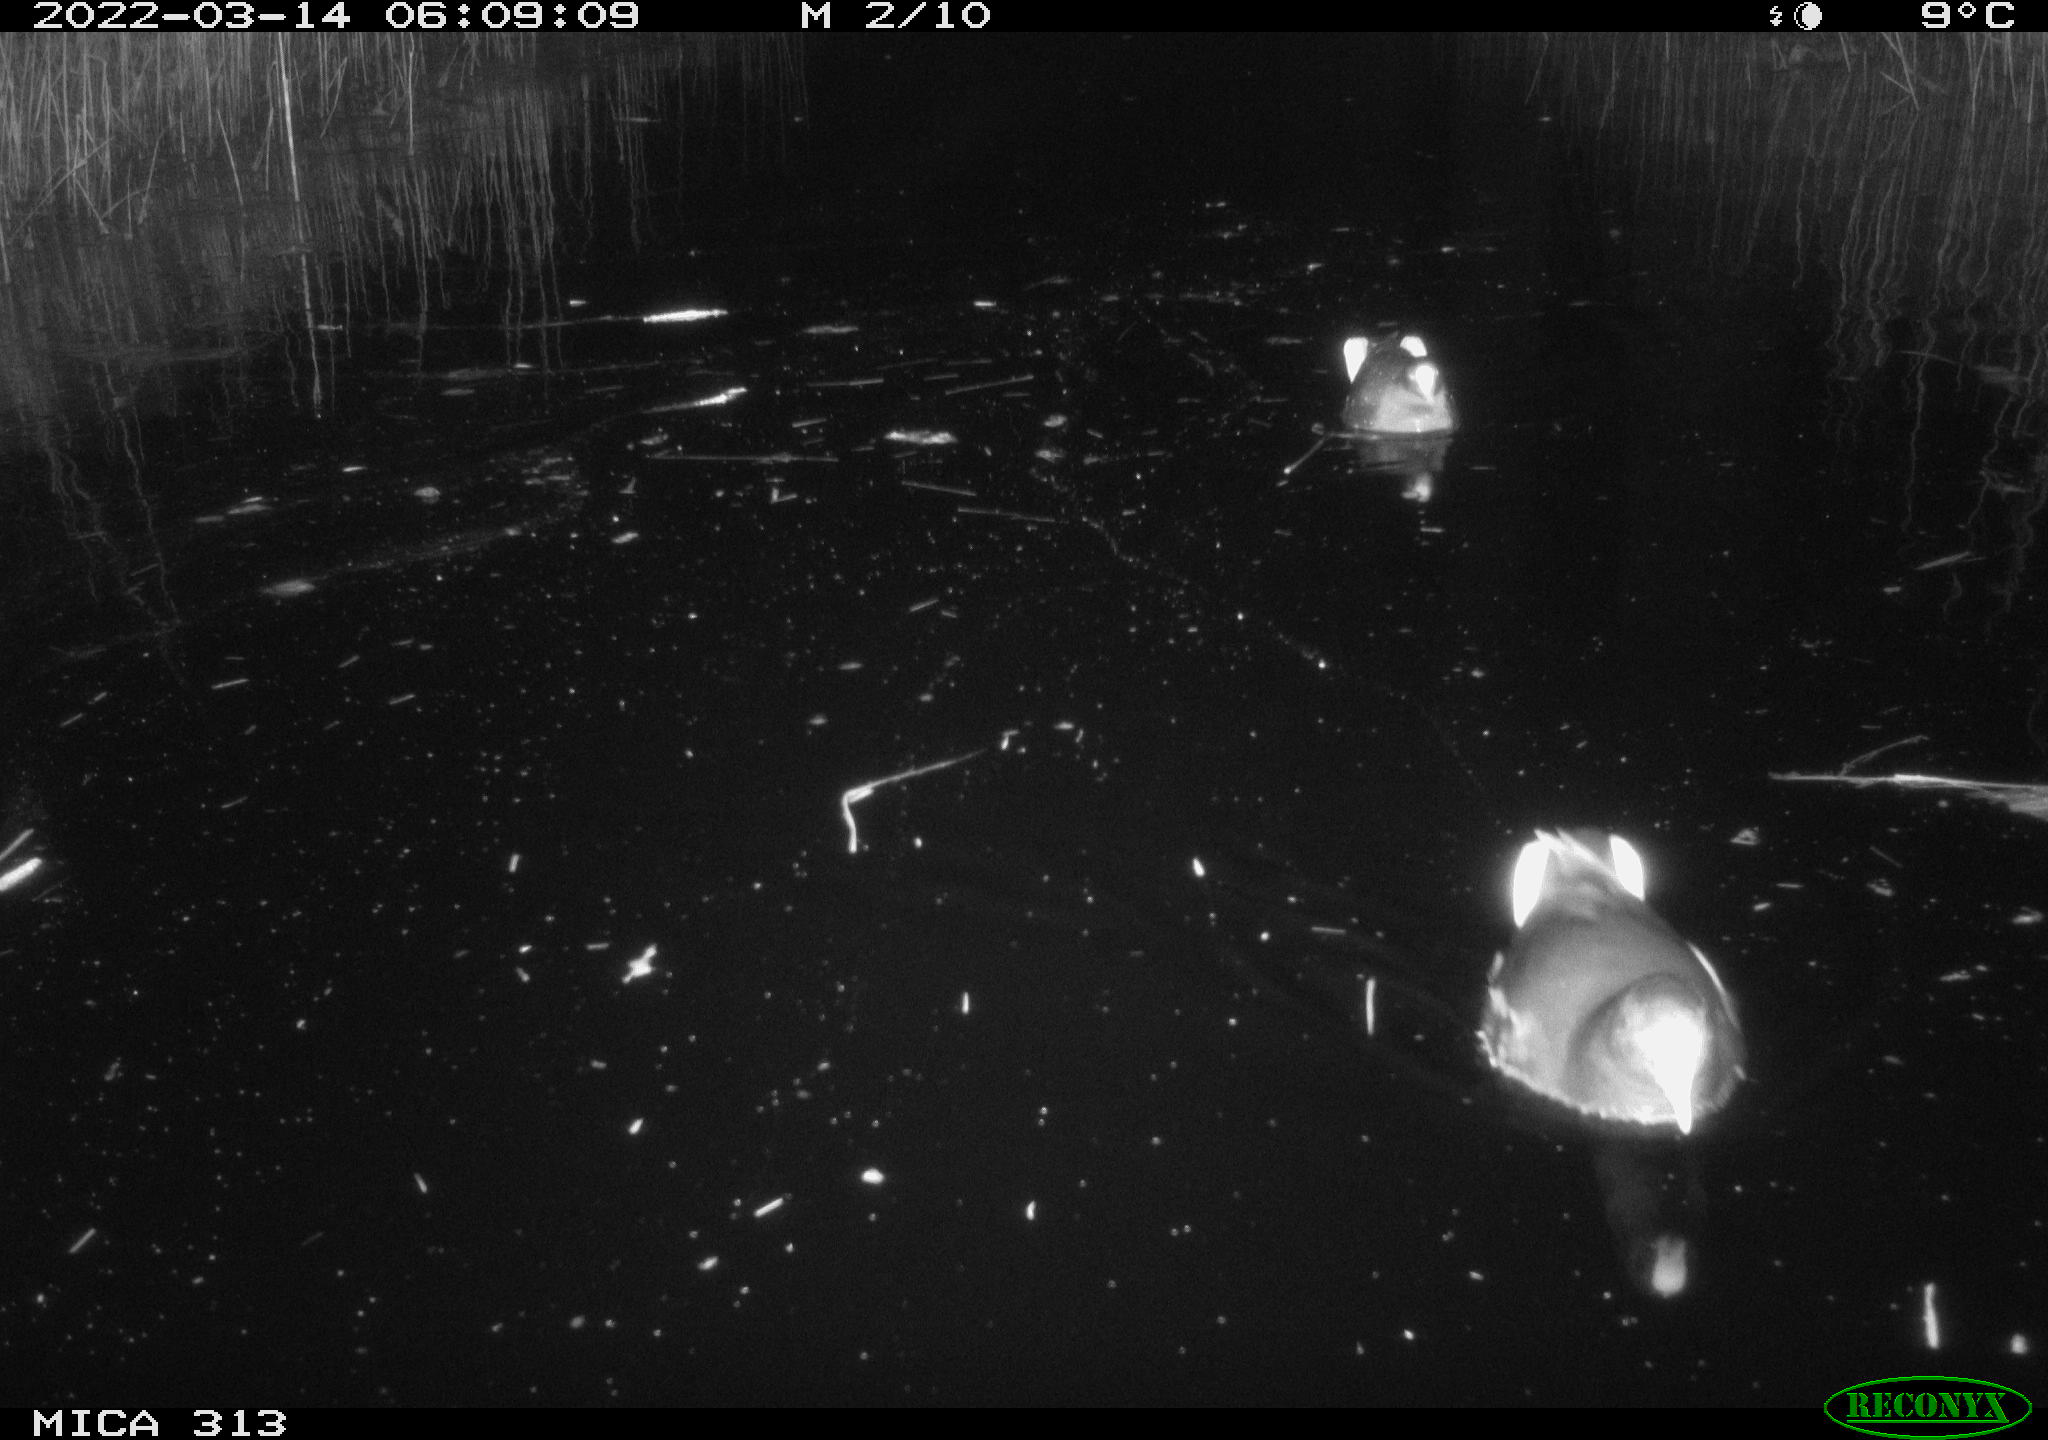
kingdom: Animalia
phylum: Chordata
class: Aves
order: Gruiformes
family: Rallidae
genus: Gallinula
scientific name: Gallinula chloropus
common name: Common moorhen
